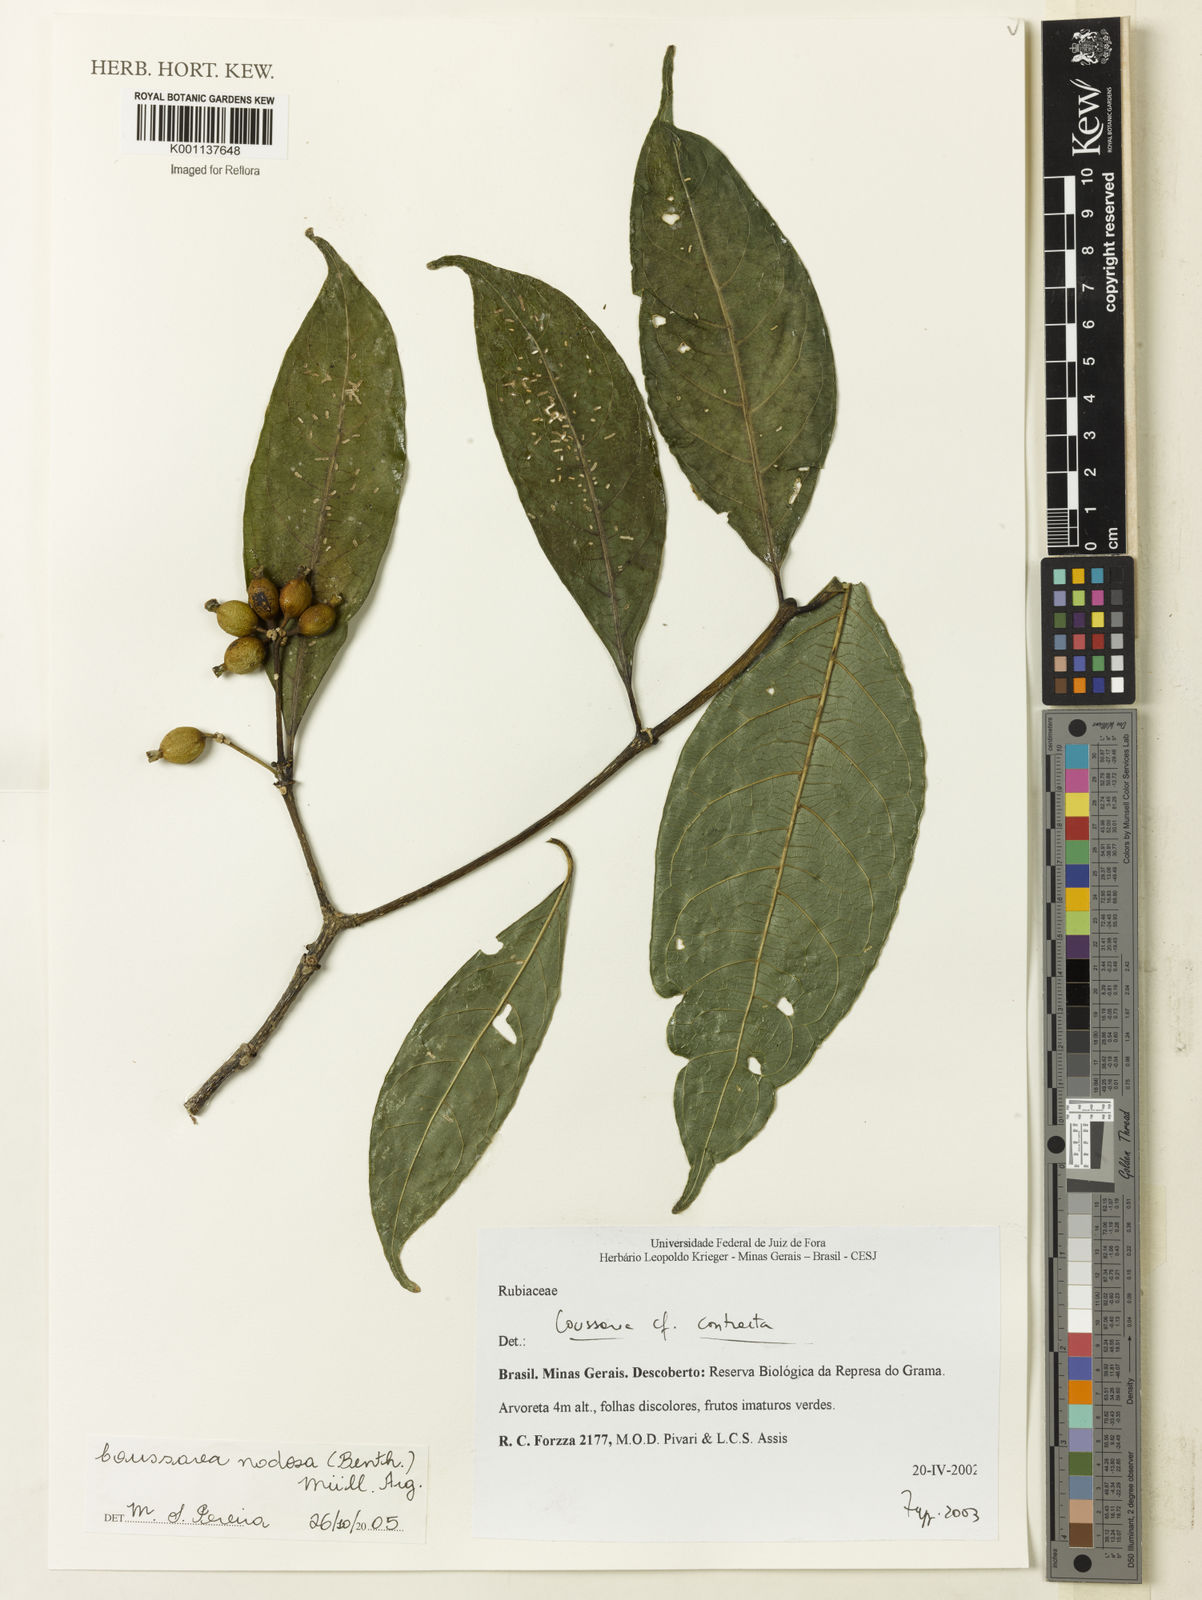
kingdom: Plantae
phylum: Tracheophyta
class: Magnoliopsida
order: Gentianales
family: Rubiaceae
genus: Coussarea
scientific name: Coussarea
